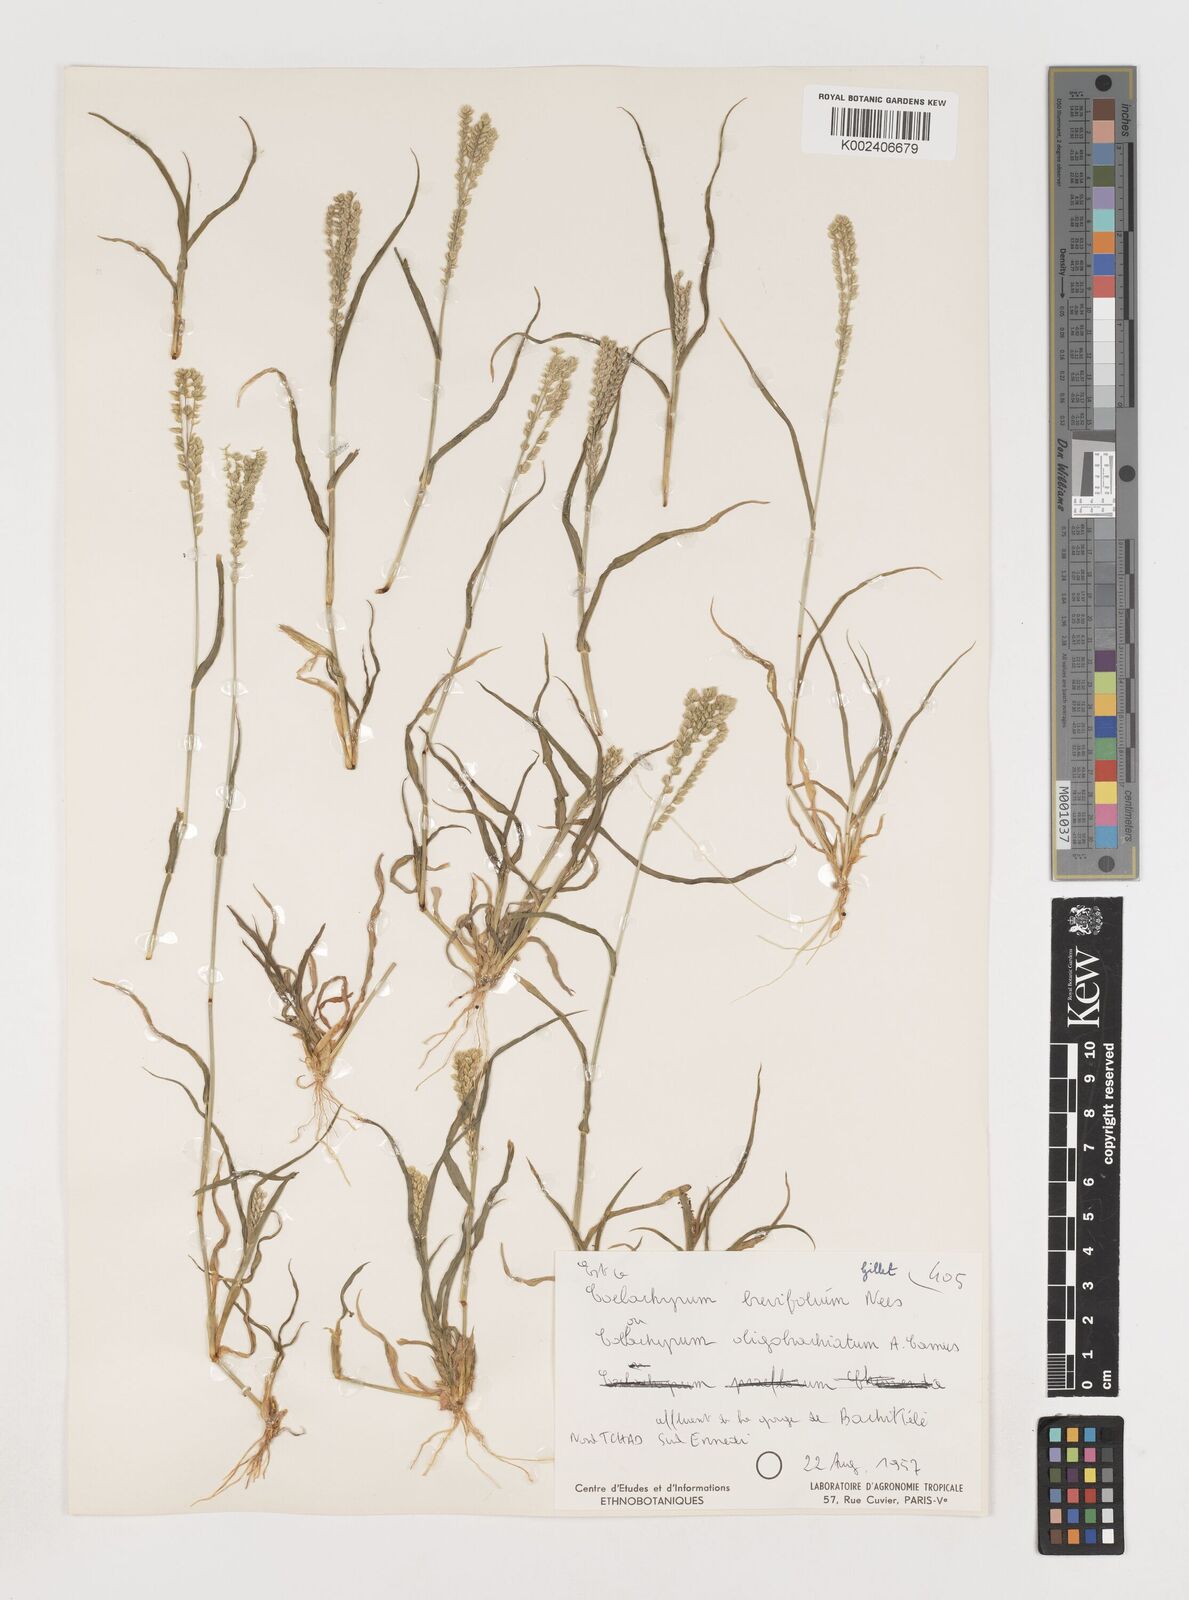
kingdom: Plantae
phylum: Tracheophyta
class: Liliopsida
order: Poales
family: Poaceae
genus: Coelachyrum
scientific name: Coelachyrum brevifolium
